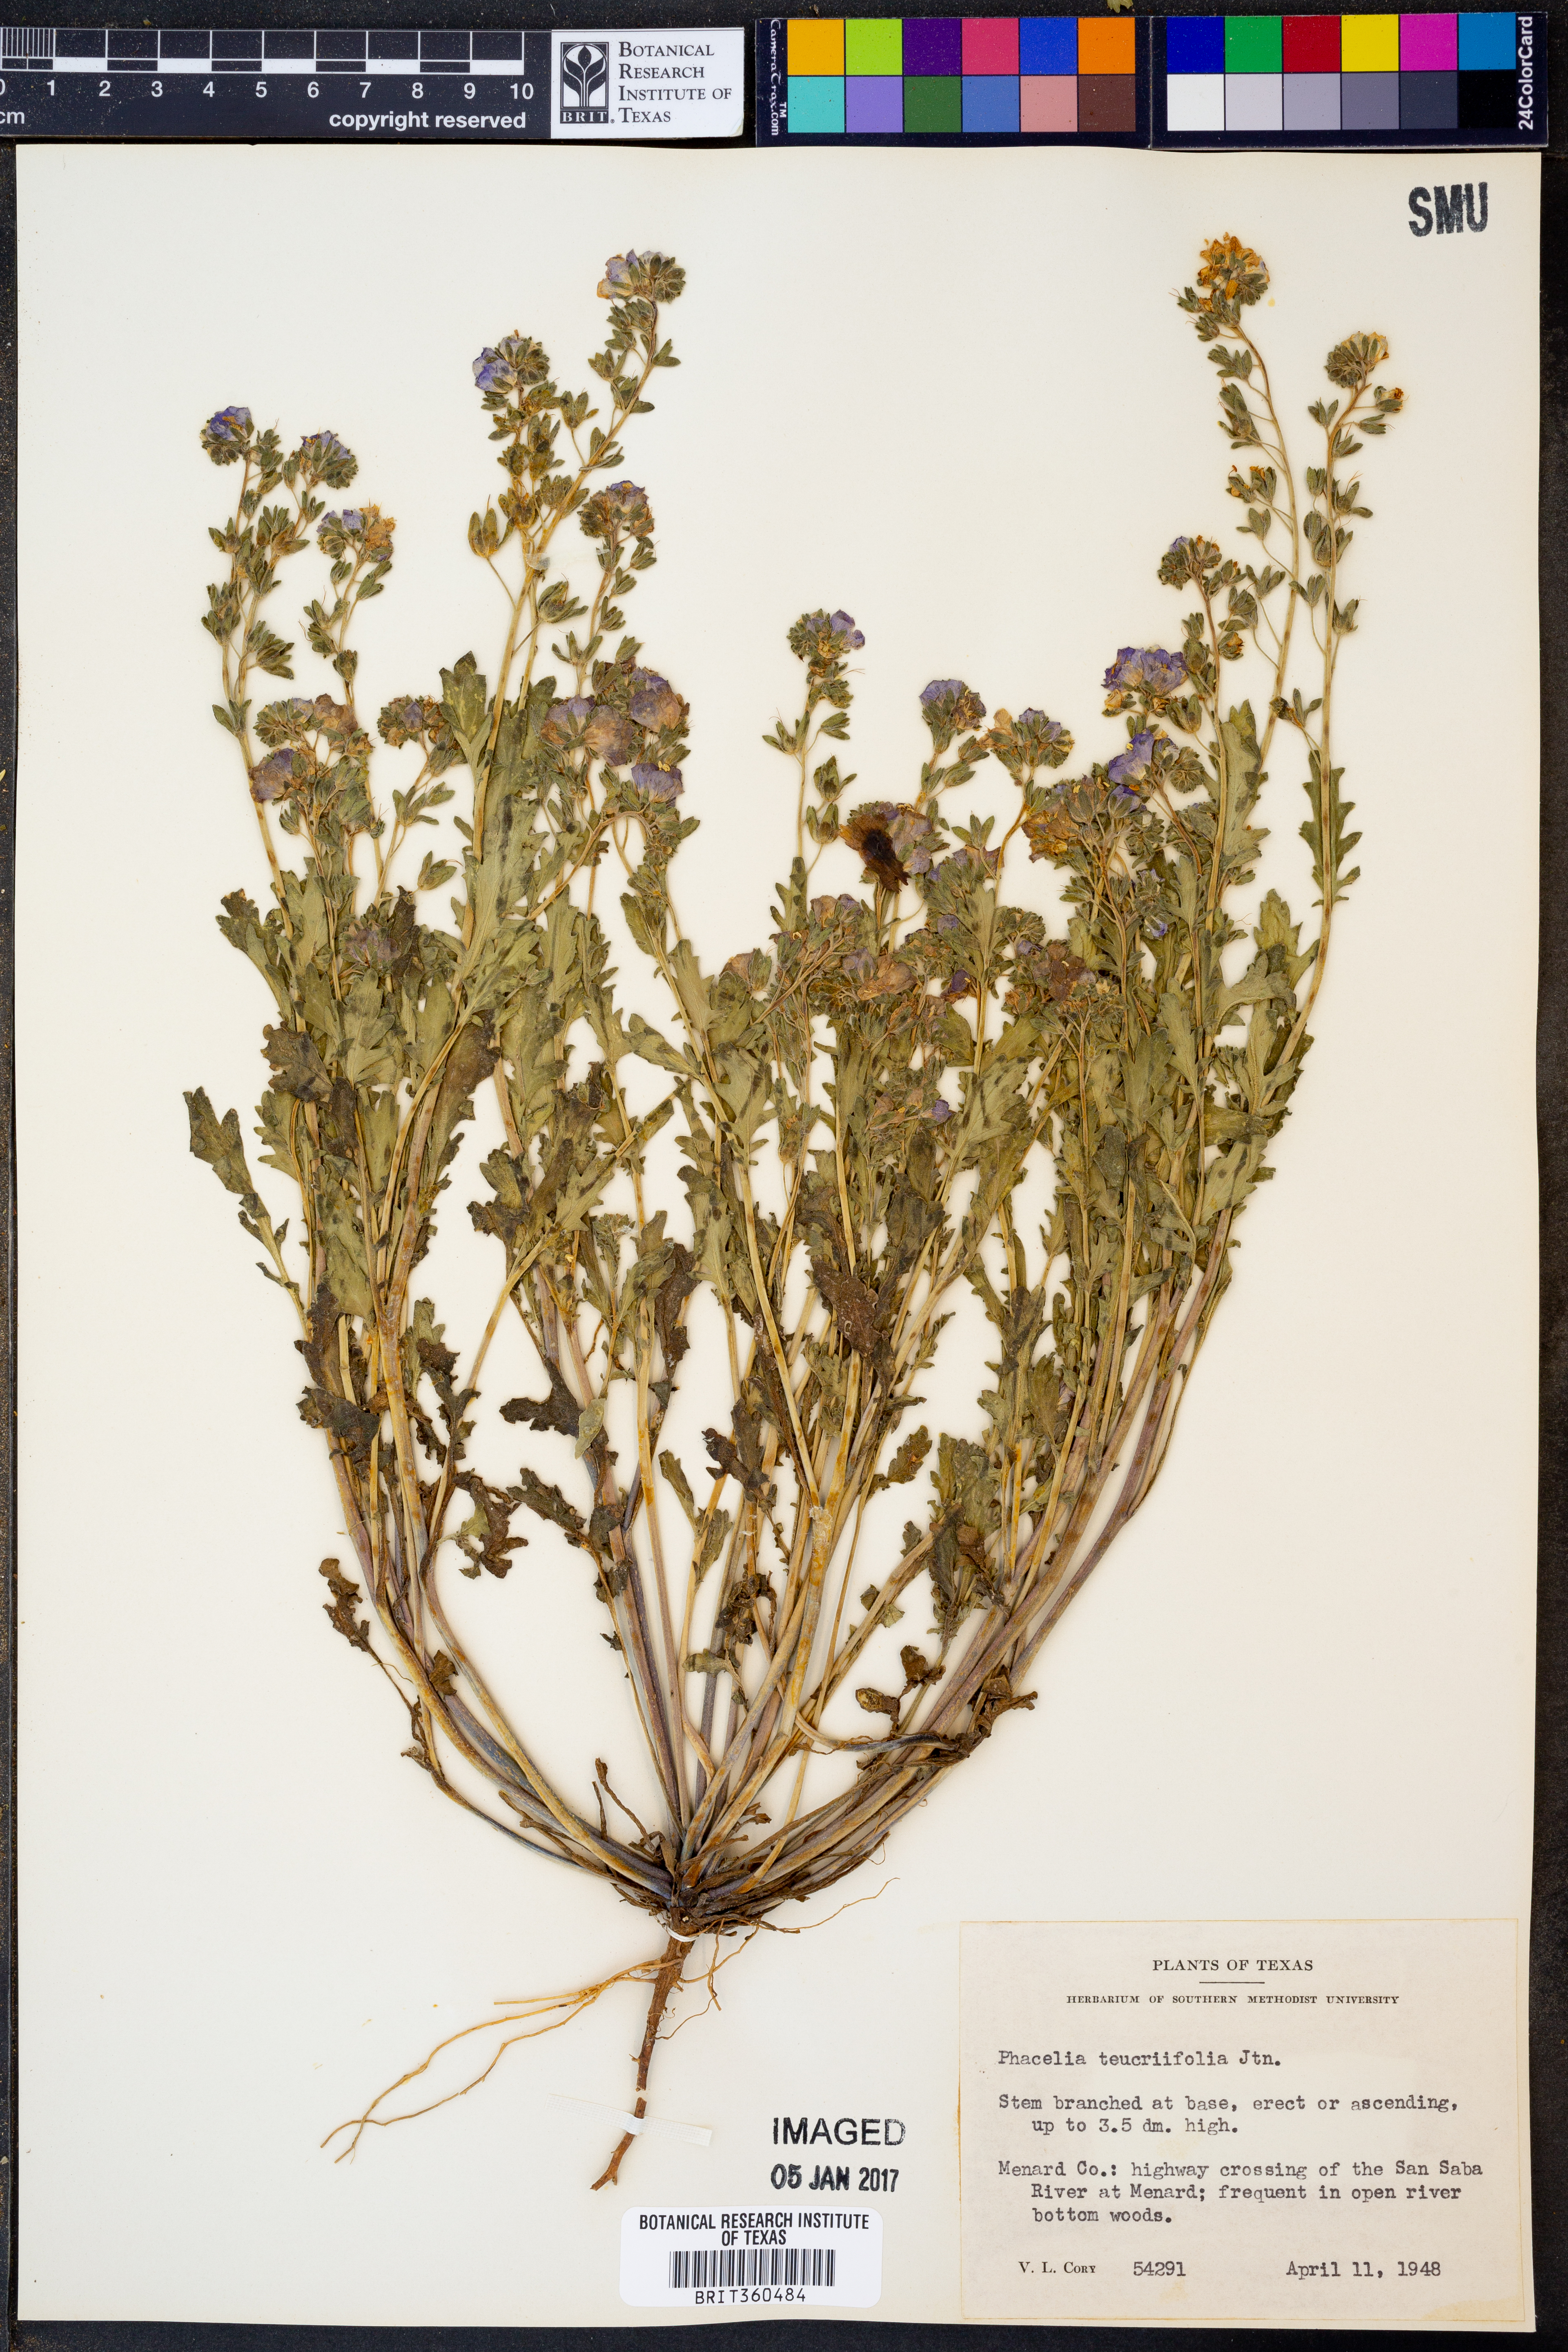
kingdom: Plantae
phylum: Tracheophyta
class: Magnoliopsida
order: Boraginales
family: Hydrophyllaceae
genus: Phacelia
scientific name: Phacelia patuliflora
